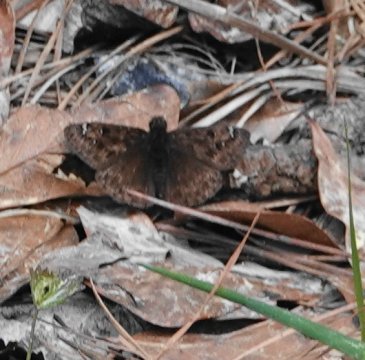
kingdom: Animalia
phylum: Arthropoda
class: Insecta
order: Lepidoptera
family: Hesperiidae
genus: Gesta
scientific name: Gesta
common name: Juvenal's Duskywing
